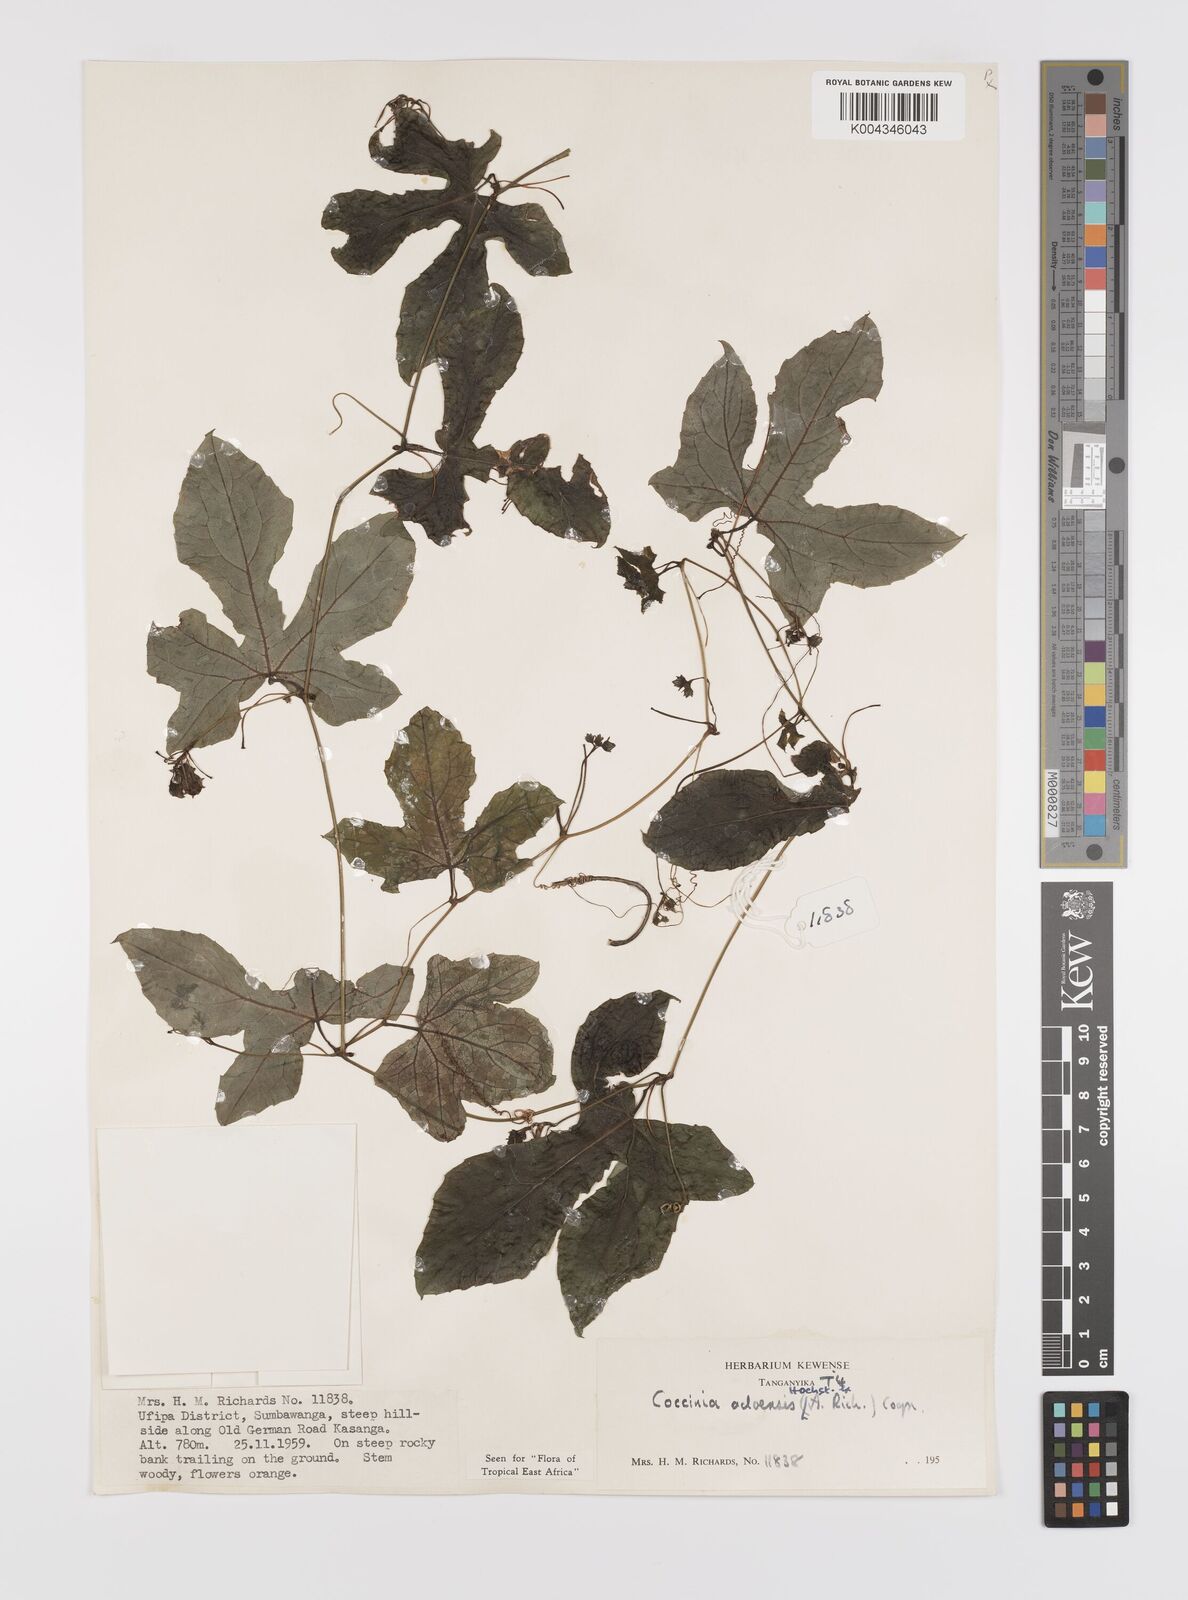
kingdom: Plantae
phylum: Tracheophyta
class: Magnoliopsida
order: Cucurbitales
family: Cucurbitaceae
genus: Coccinia
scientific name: Coccinia adoensis
